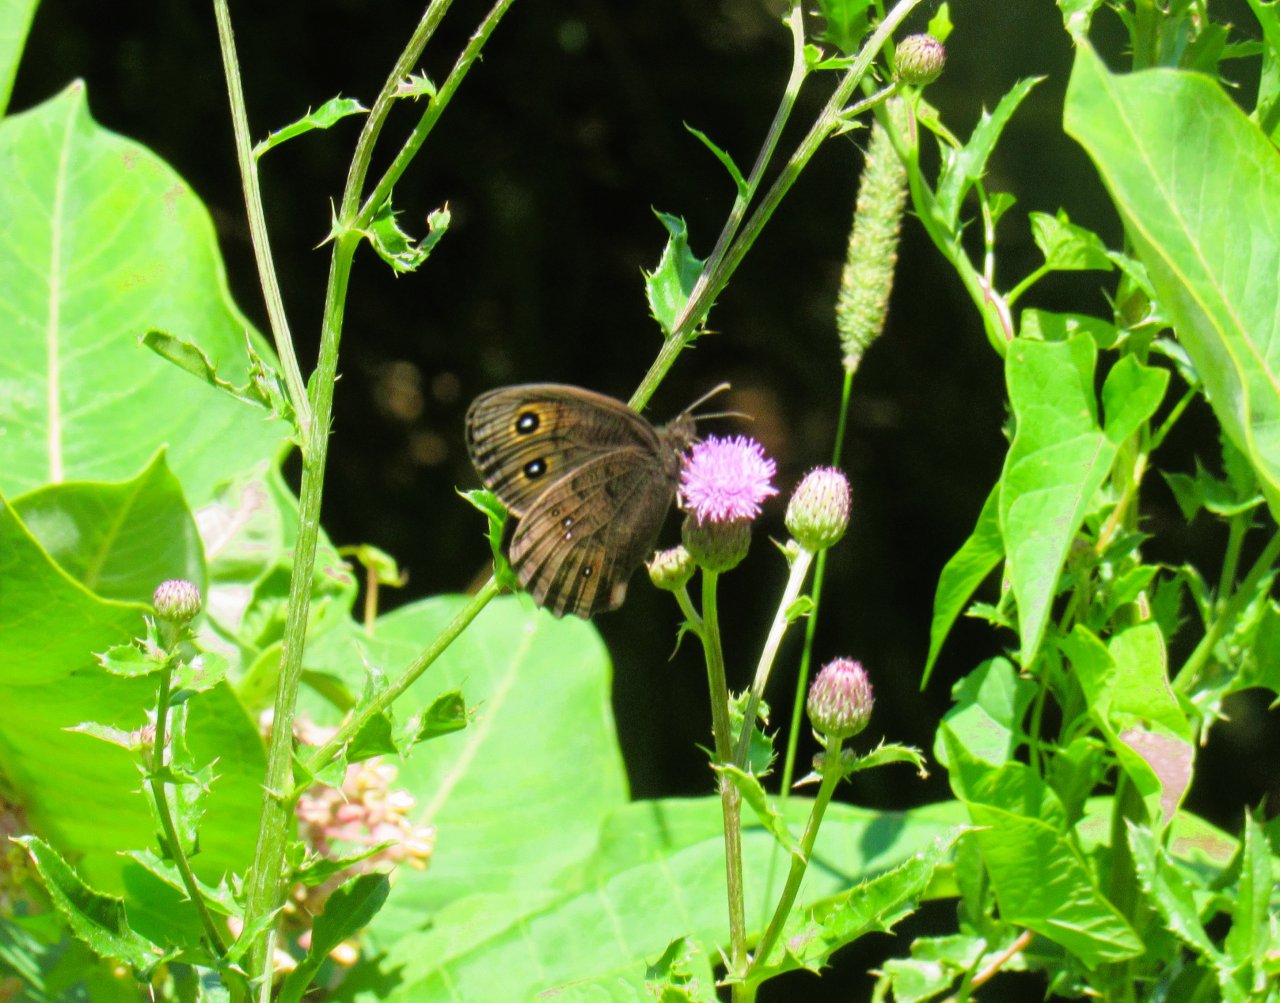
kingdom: Animalia
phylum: Arthropoda
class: Insecta
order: Lepidoptera
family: Nymphalidae
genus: Cercyonis
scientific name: Cercyonis pegala
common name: Common Wood-Nymph
